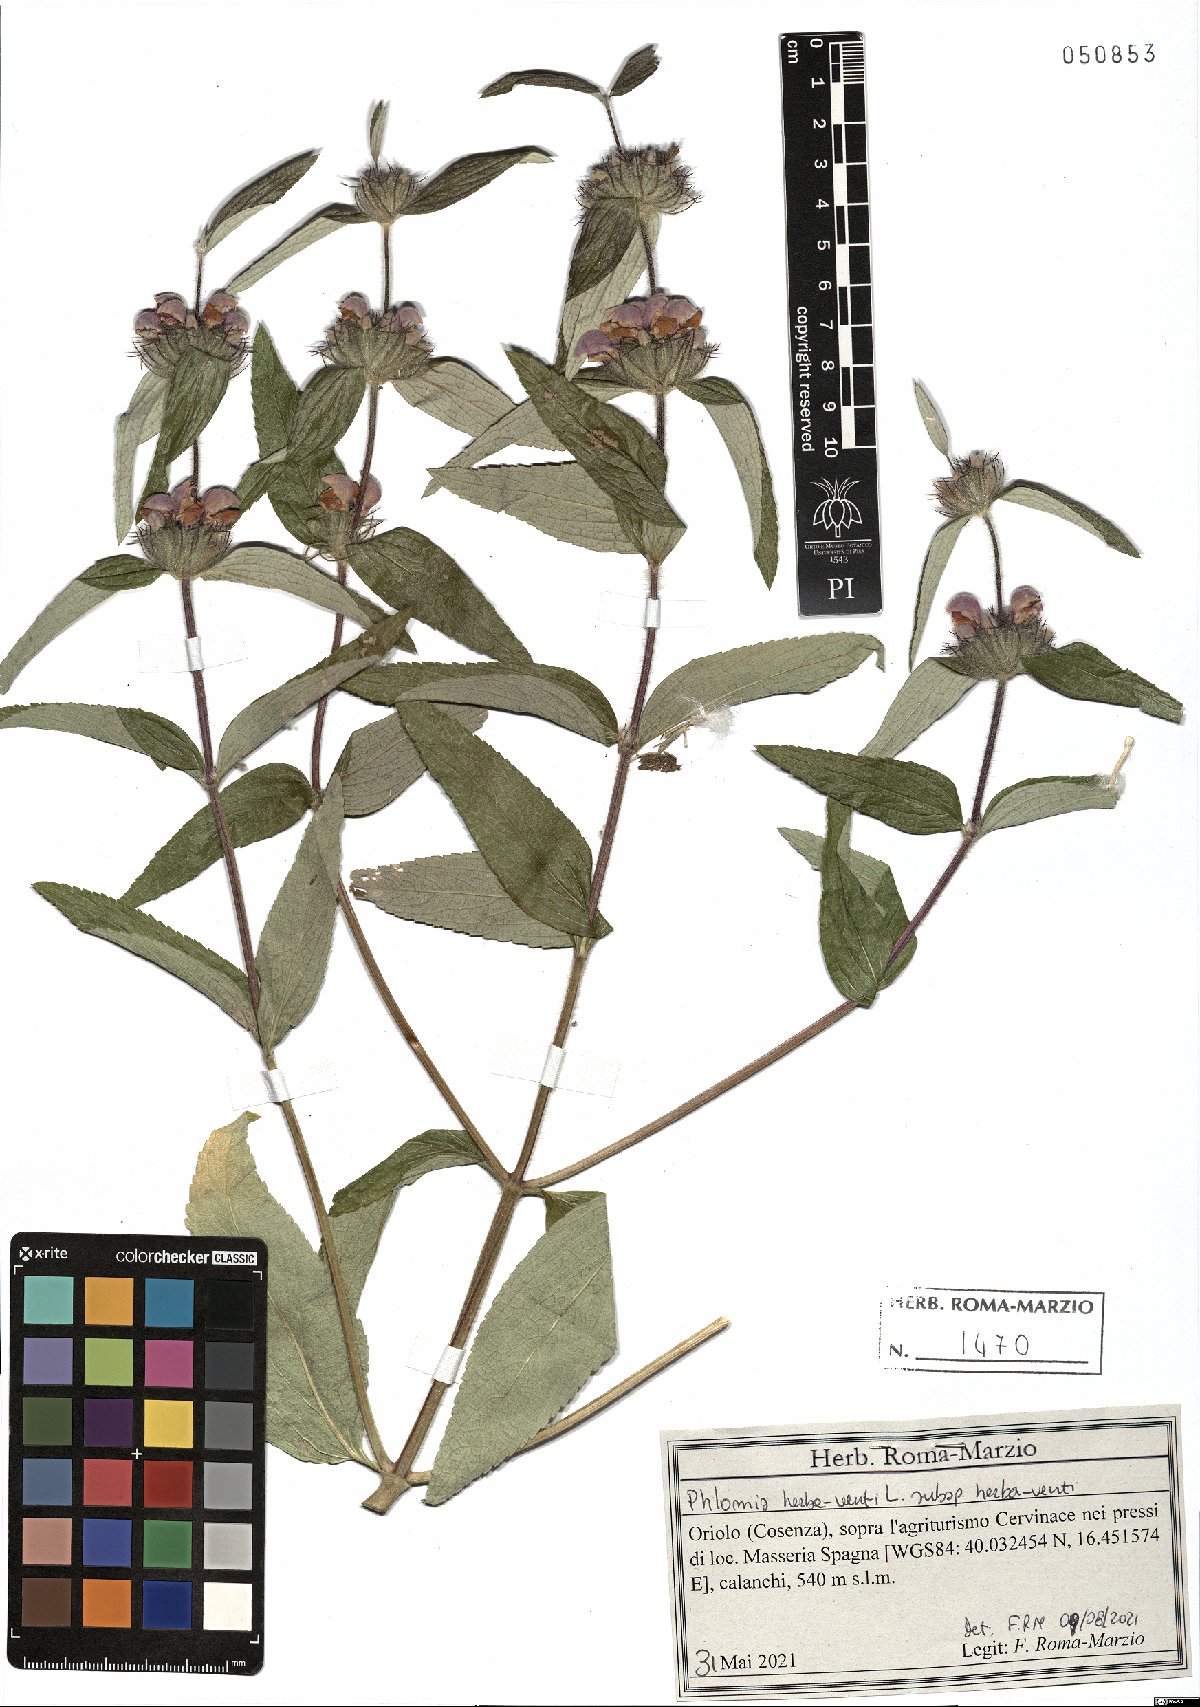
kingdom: Plantae
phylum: Tracheophyta
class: Magnoliopsida
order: Lamiales
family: Lamiaceae
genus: Phlomis
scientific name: Phlomis herba-venti
